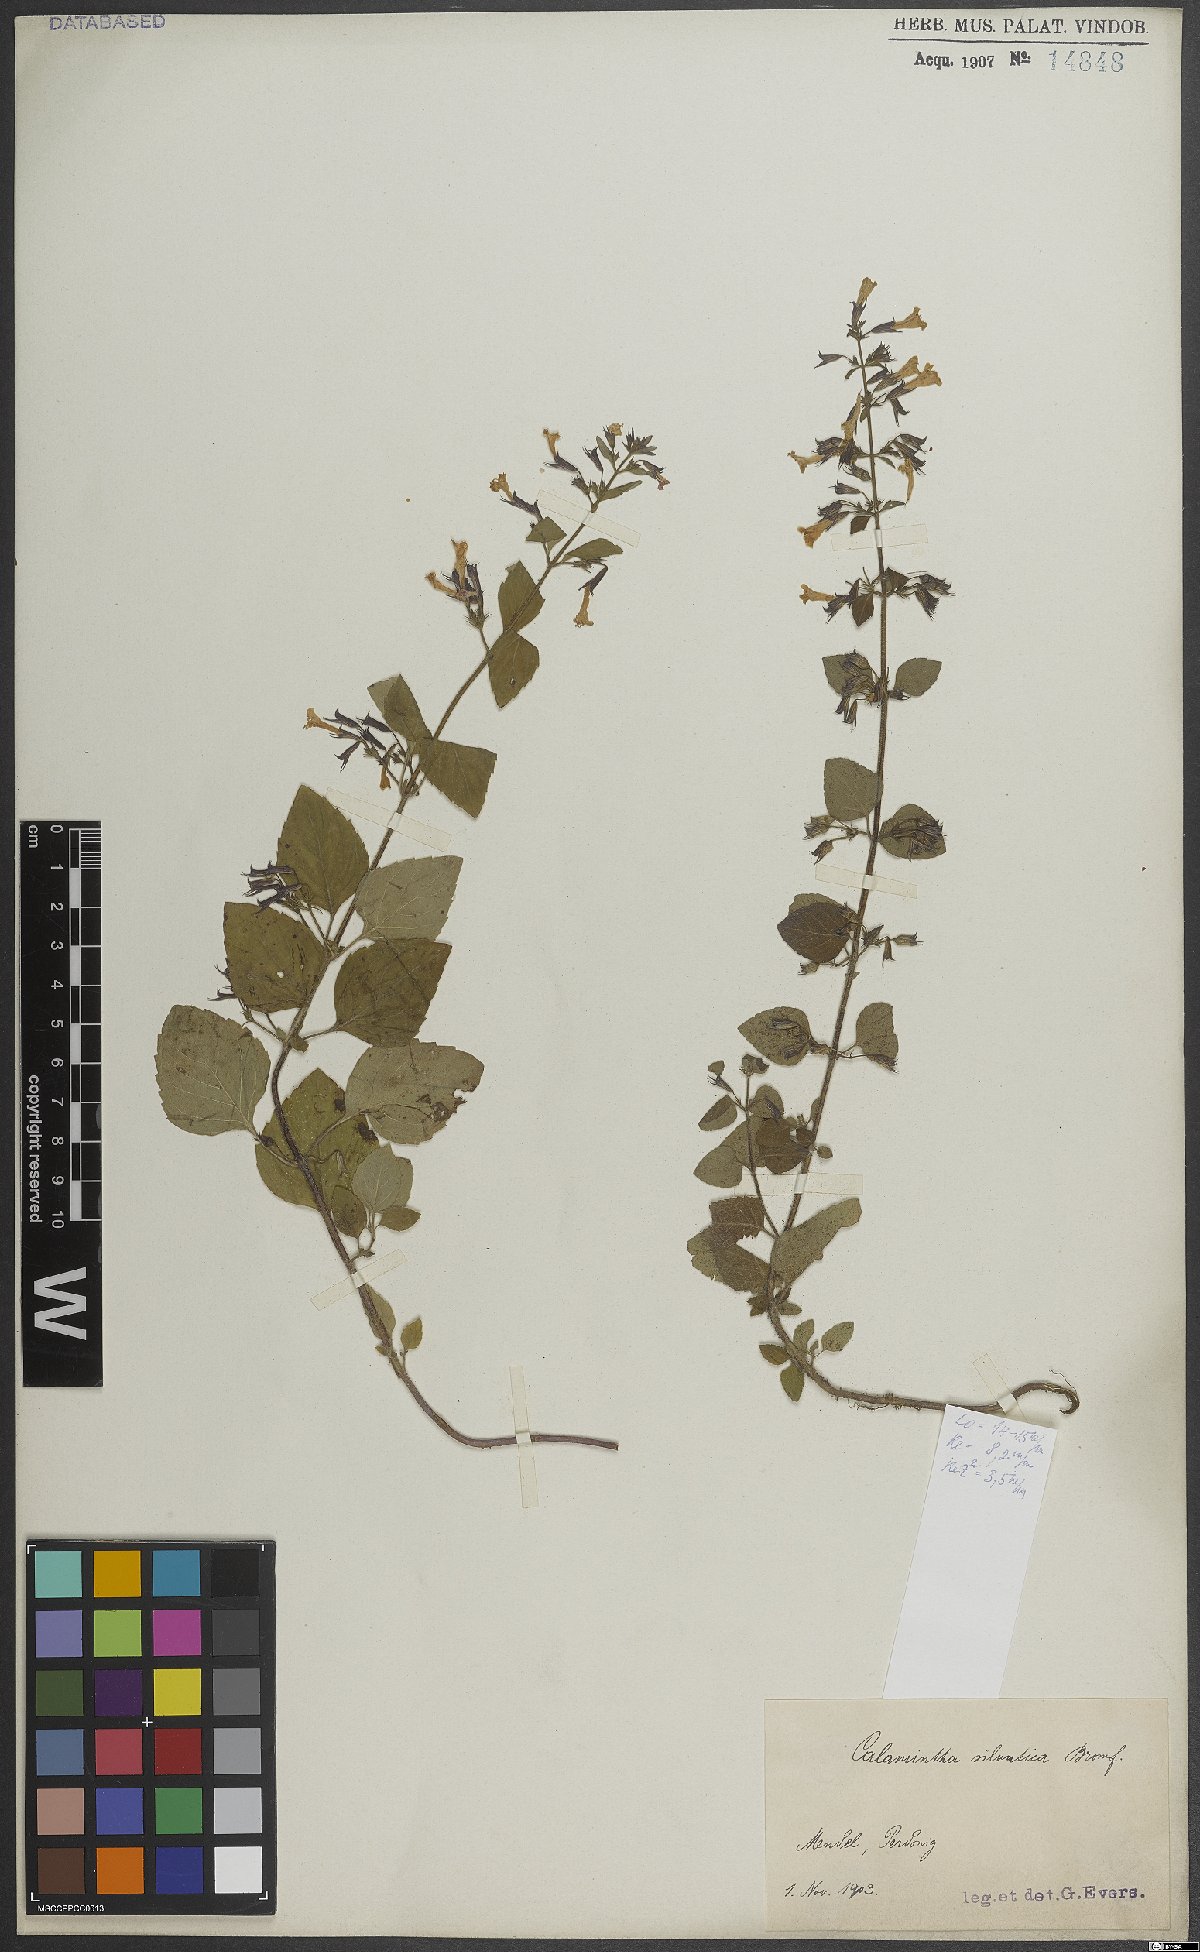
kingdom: Plantae
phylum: Tracheophyta
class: Magnoliopsida
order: Lamiales
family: Lamiaceae
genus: Clinopodium
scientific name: Clinopodium menthifolium
